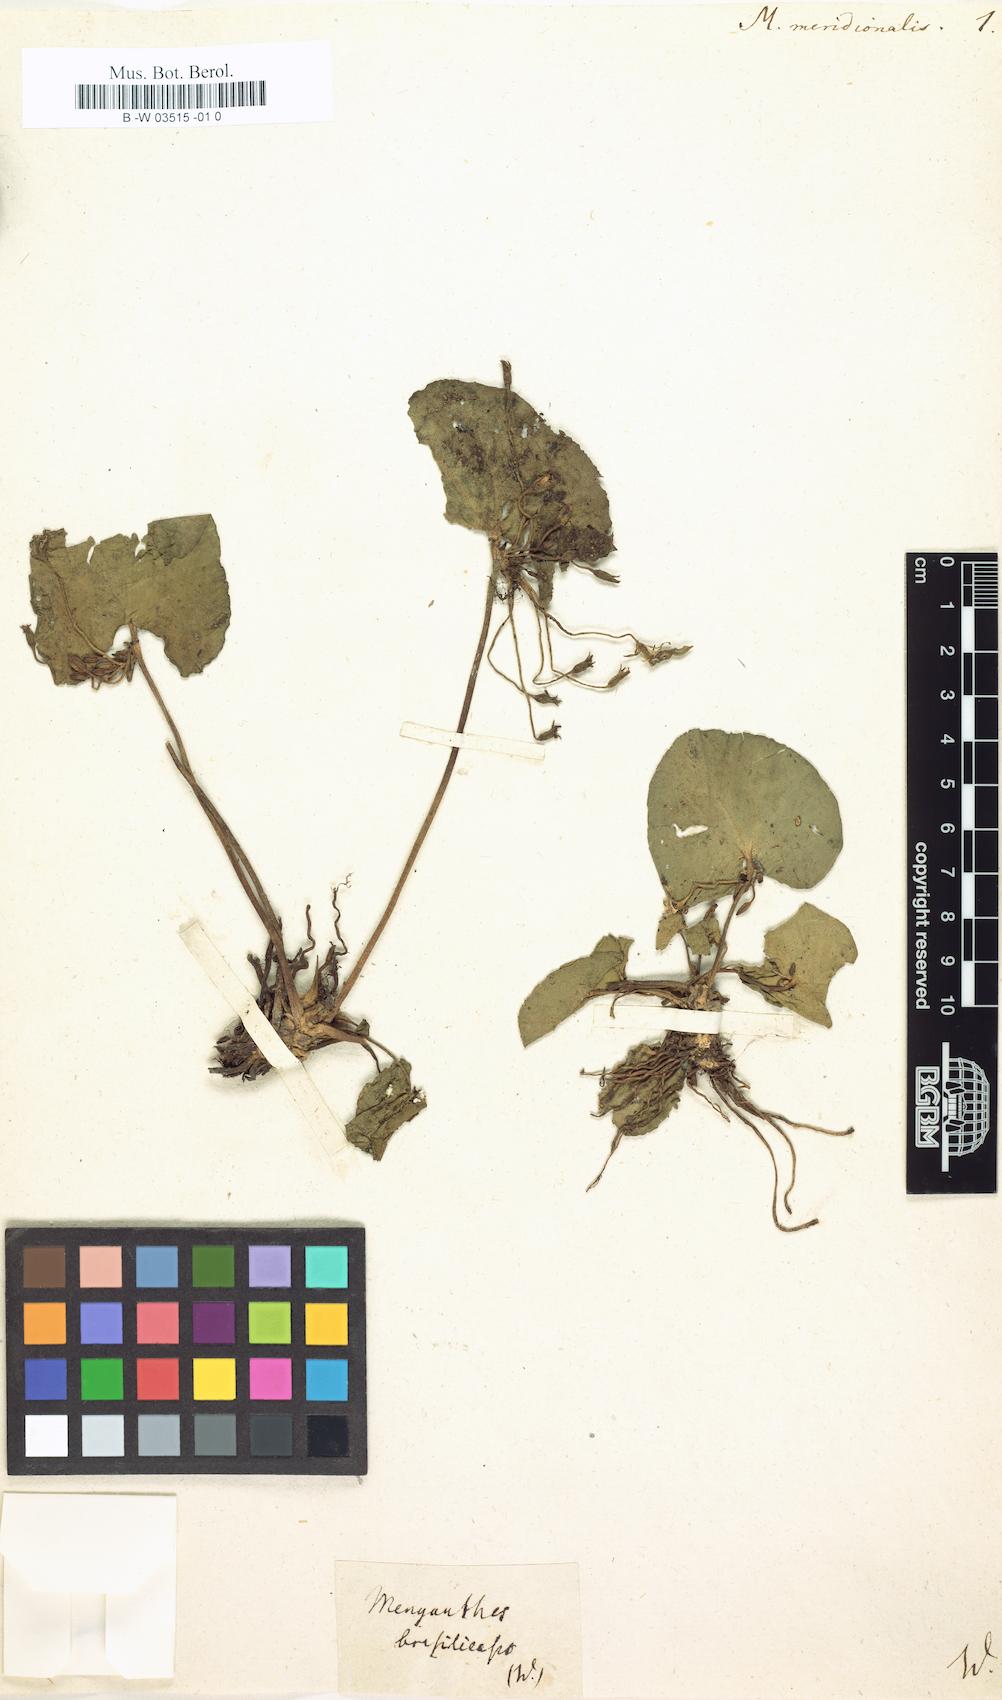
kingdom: Plantae
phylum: Tracheophyta
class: Magnoliopsida
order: Asterales
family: Menyanthaceae
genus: Nymphoides
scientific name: Nymphoides indica
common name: Water-snowflake
